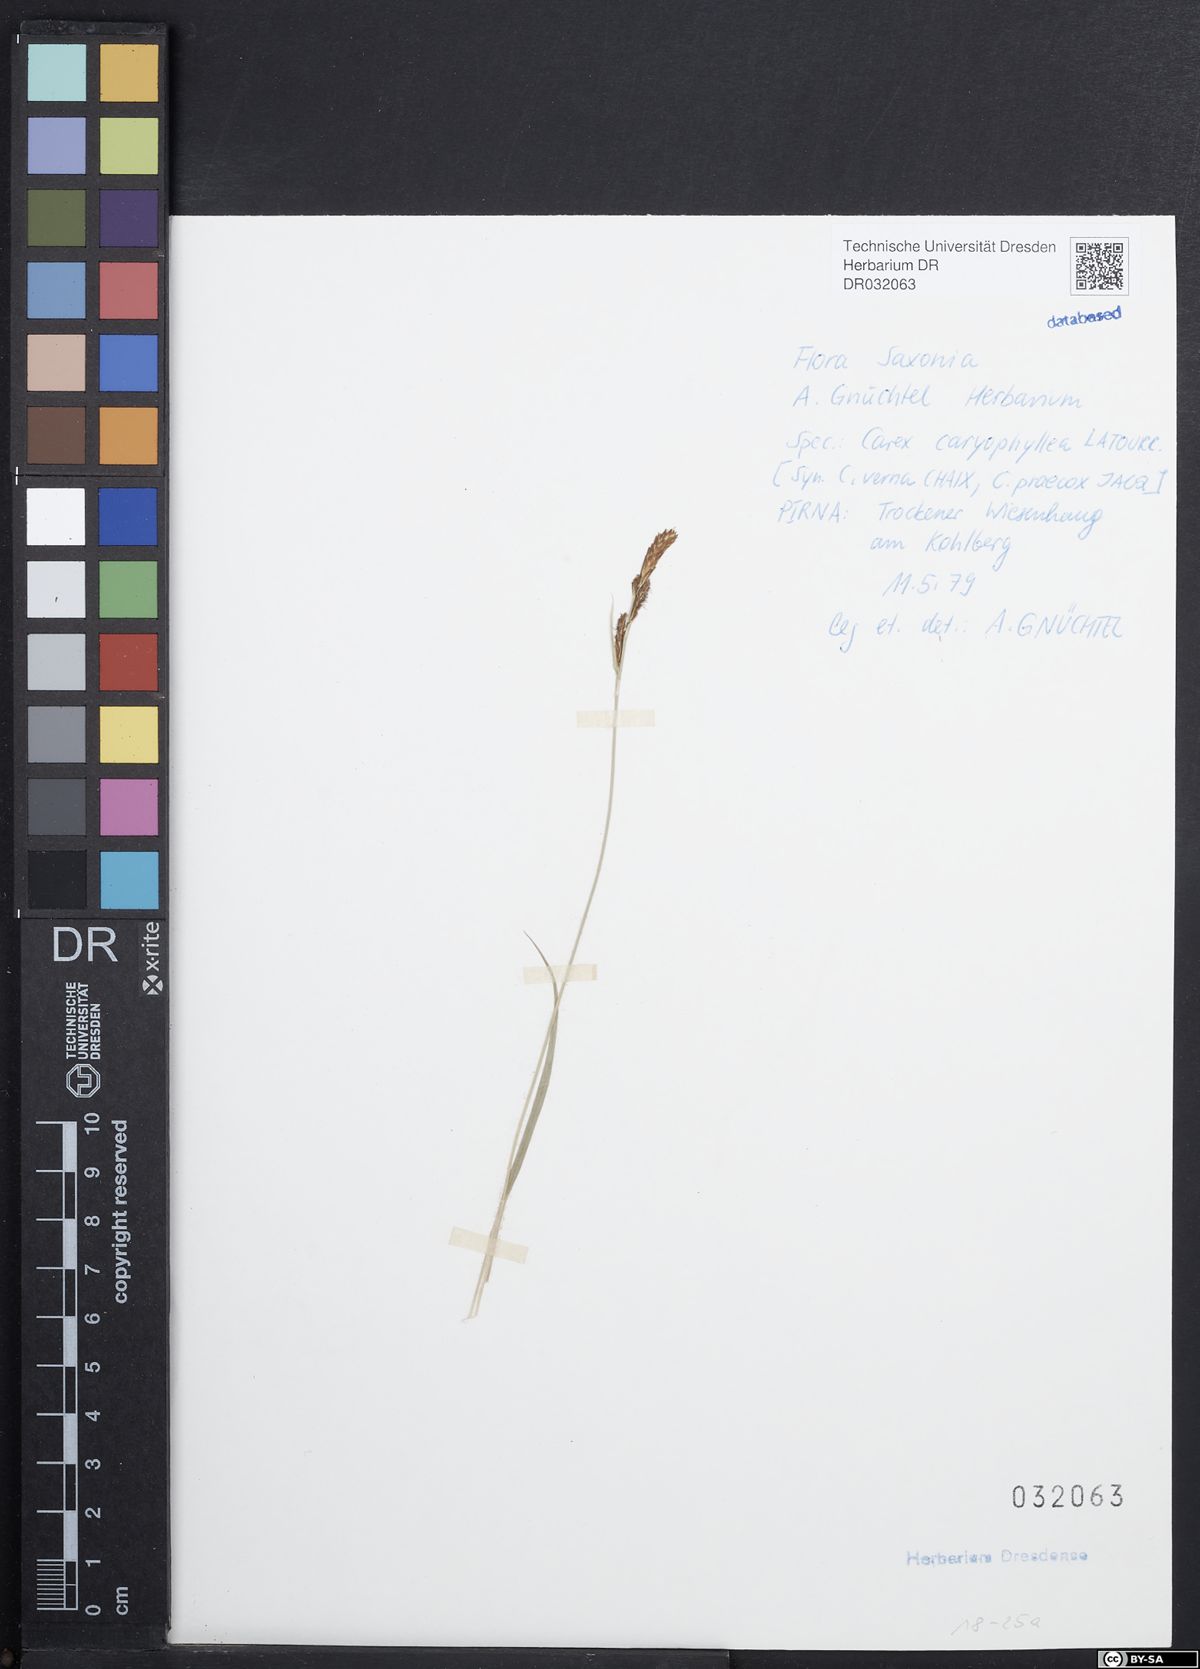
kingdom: Plantae
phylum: Tracheophyta
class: Liliopsida
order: Poales
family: Cyperaceae
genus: Carex
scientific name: Carex caryophyllea
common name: Spring sedge
